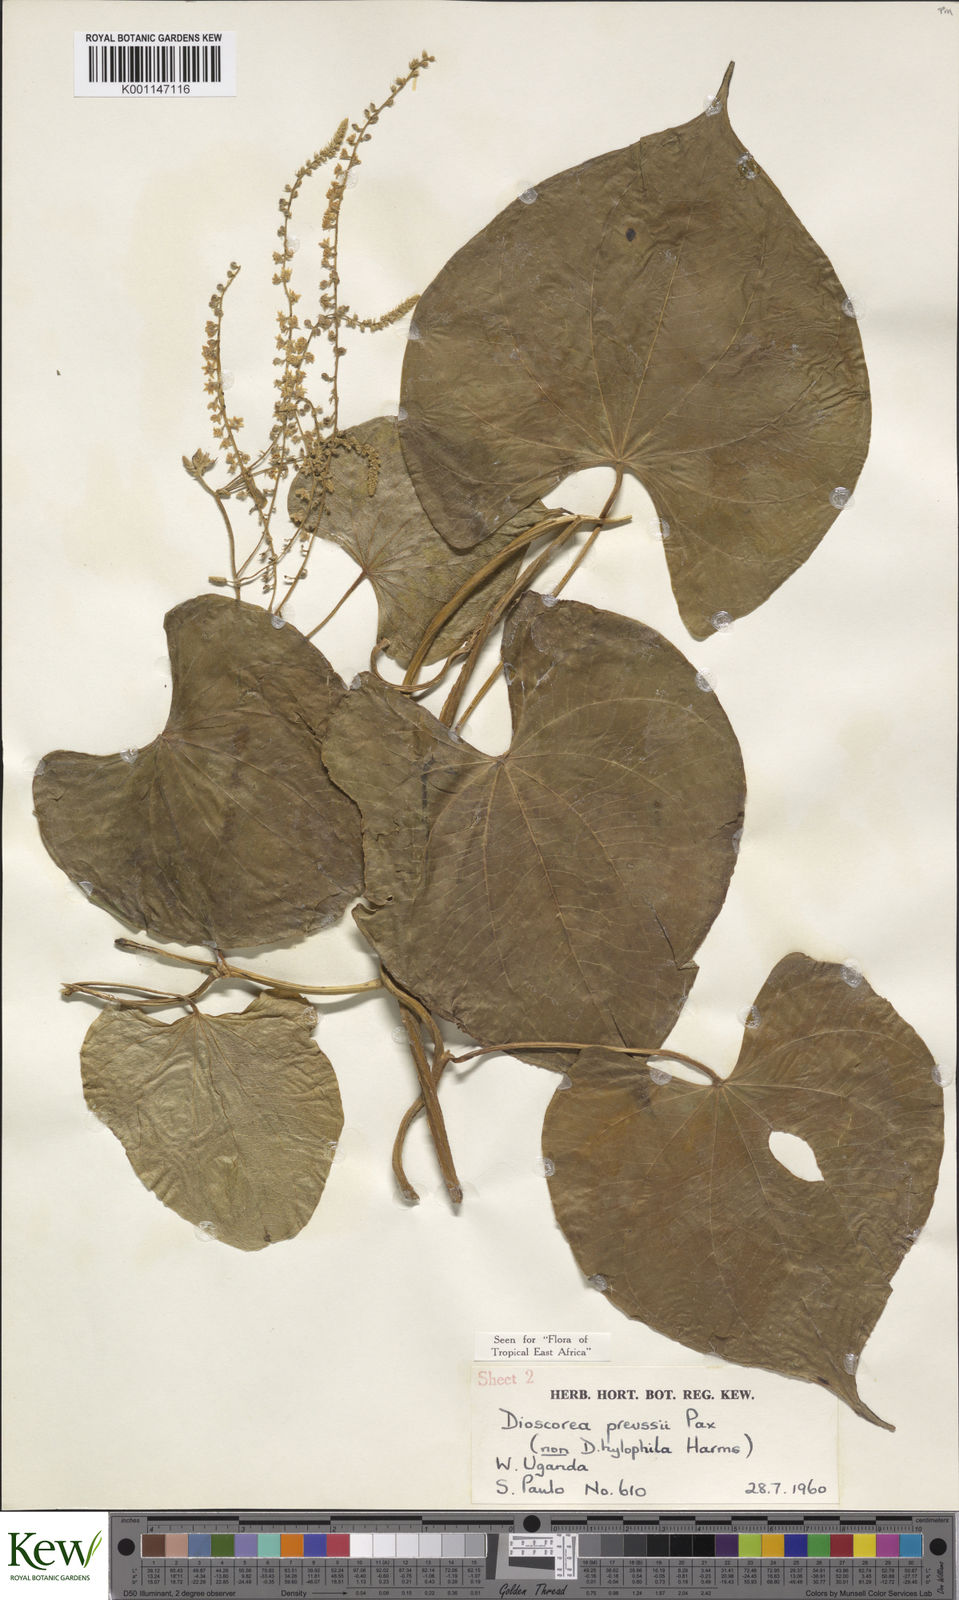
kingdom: Plantae
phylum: Tracheophyta
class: Liliopsida
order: Dioscoreales
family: Dioscoreaceae
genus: Dioscorea
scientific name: Dioscorea preussii
